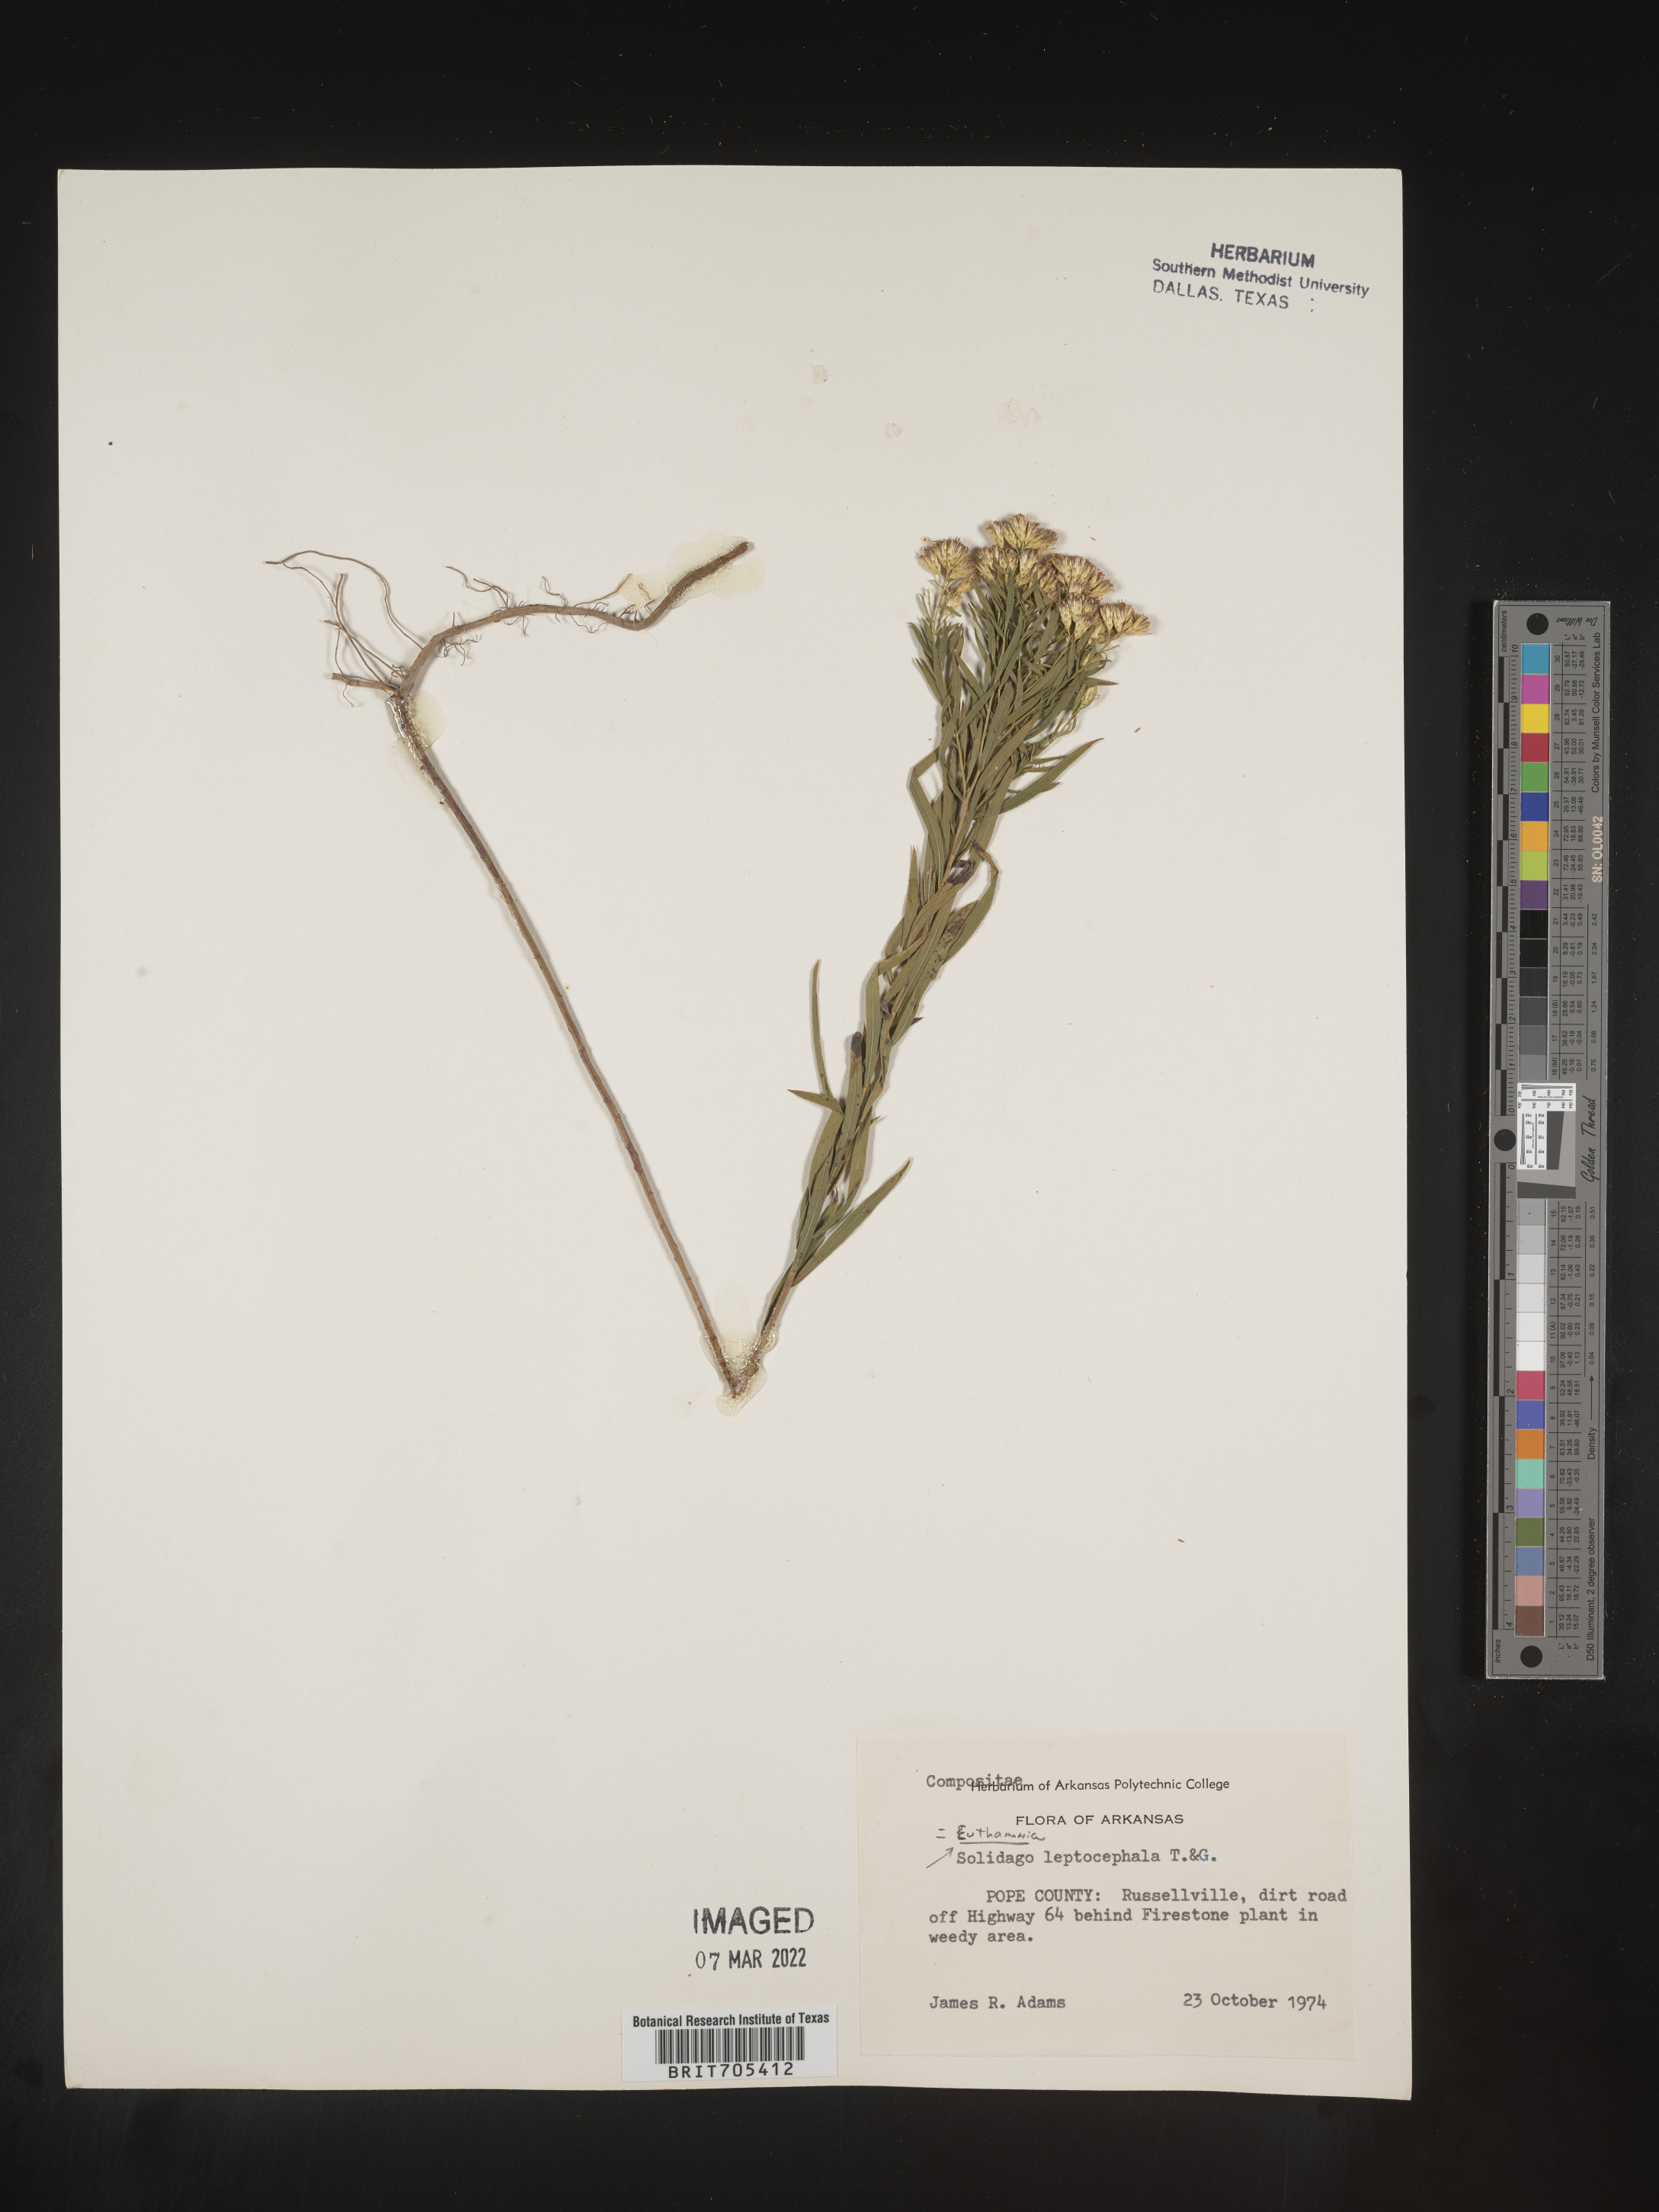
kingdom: Plantae
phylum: Tracheophyta
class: Magnoliopsida
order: Asterales
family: Asteraceae
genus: Euthamia
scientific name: Euthamia leptocephala
